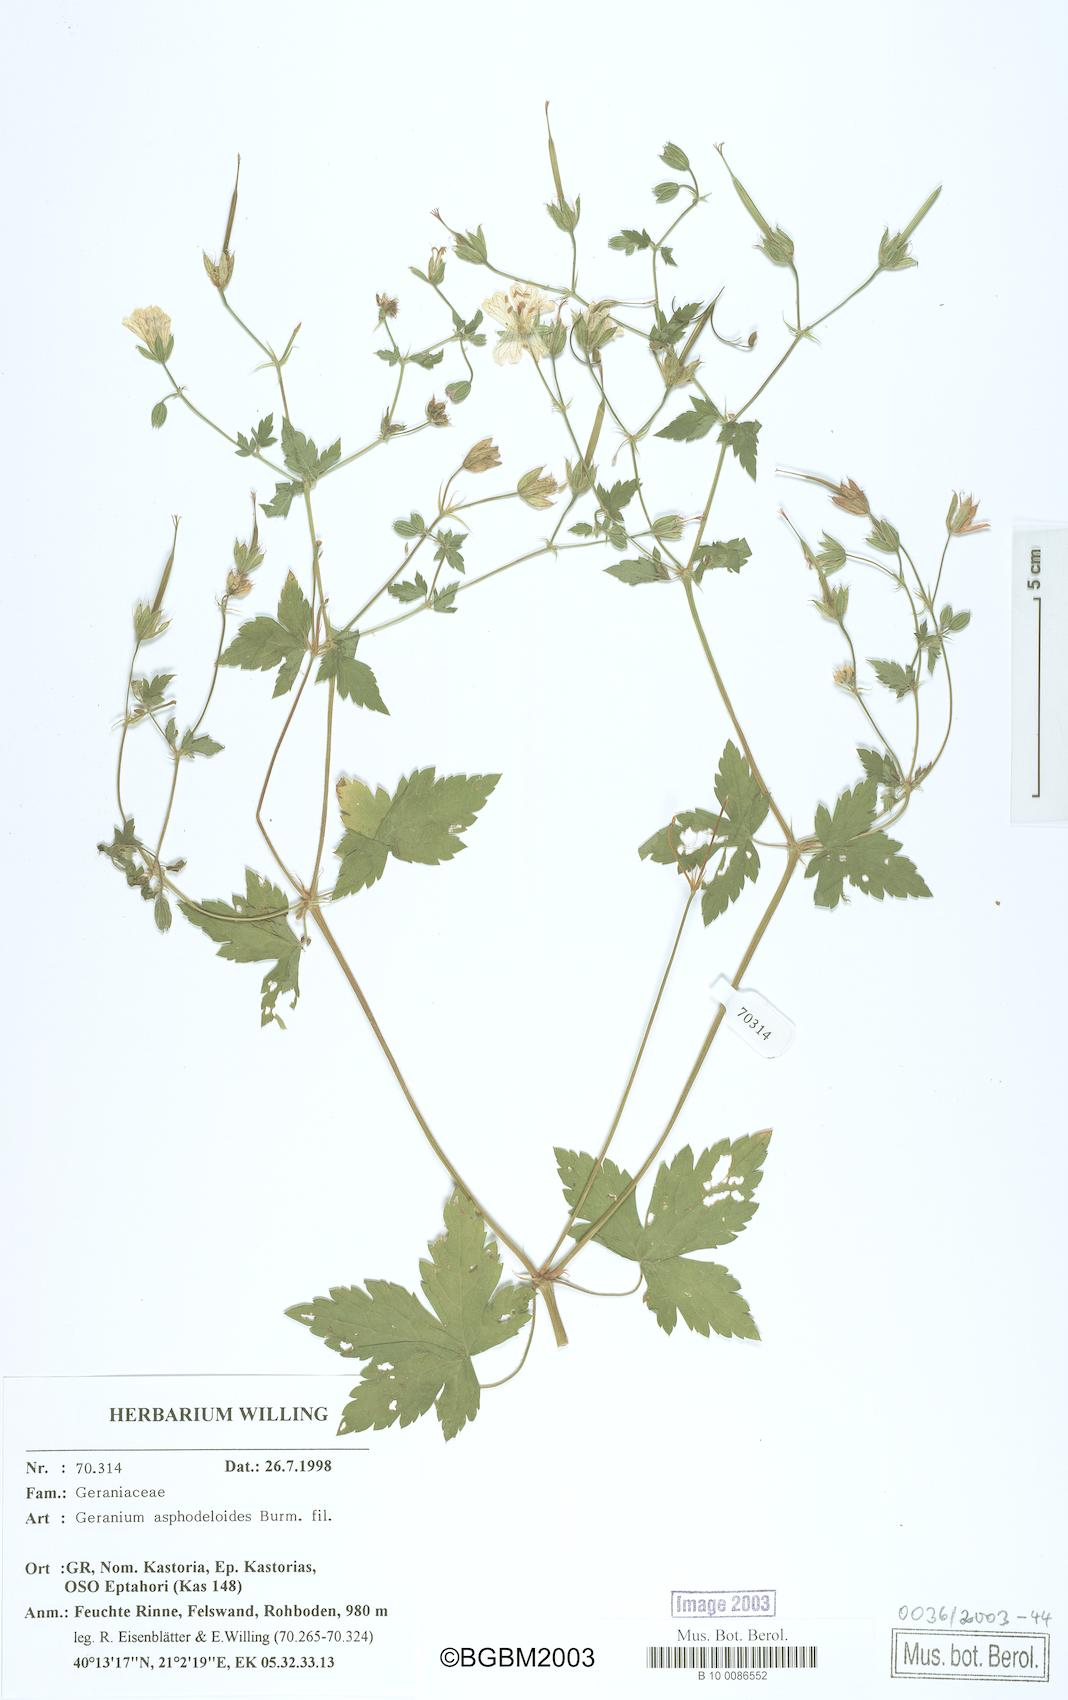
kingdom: Plantae
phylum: Tracheophyta
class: Magnoliopsida
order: Geraniales
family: Geraniaceae
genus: Geranium
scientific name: Geranium asphodeloides
